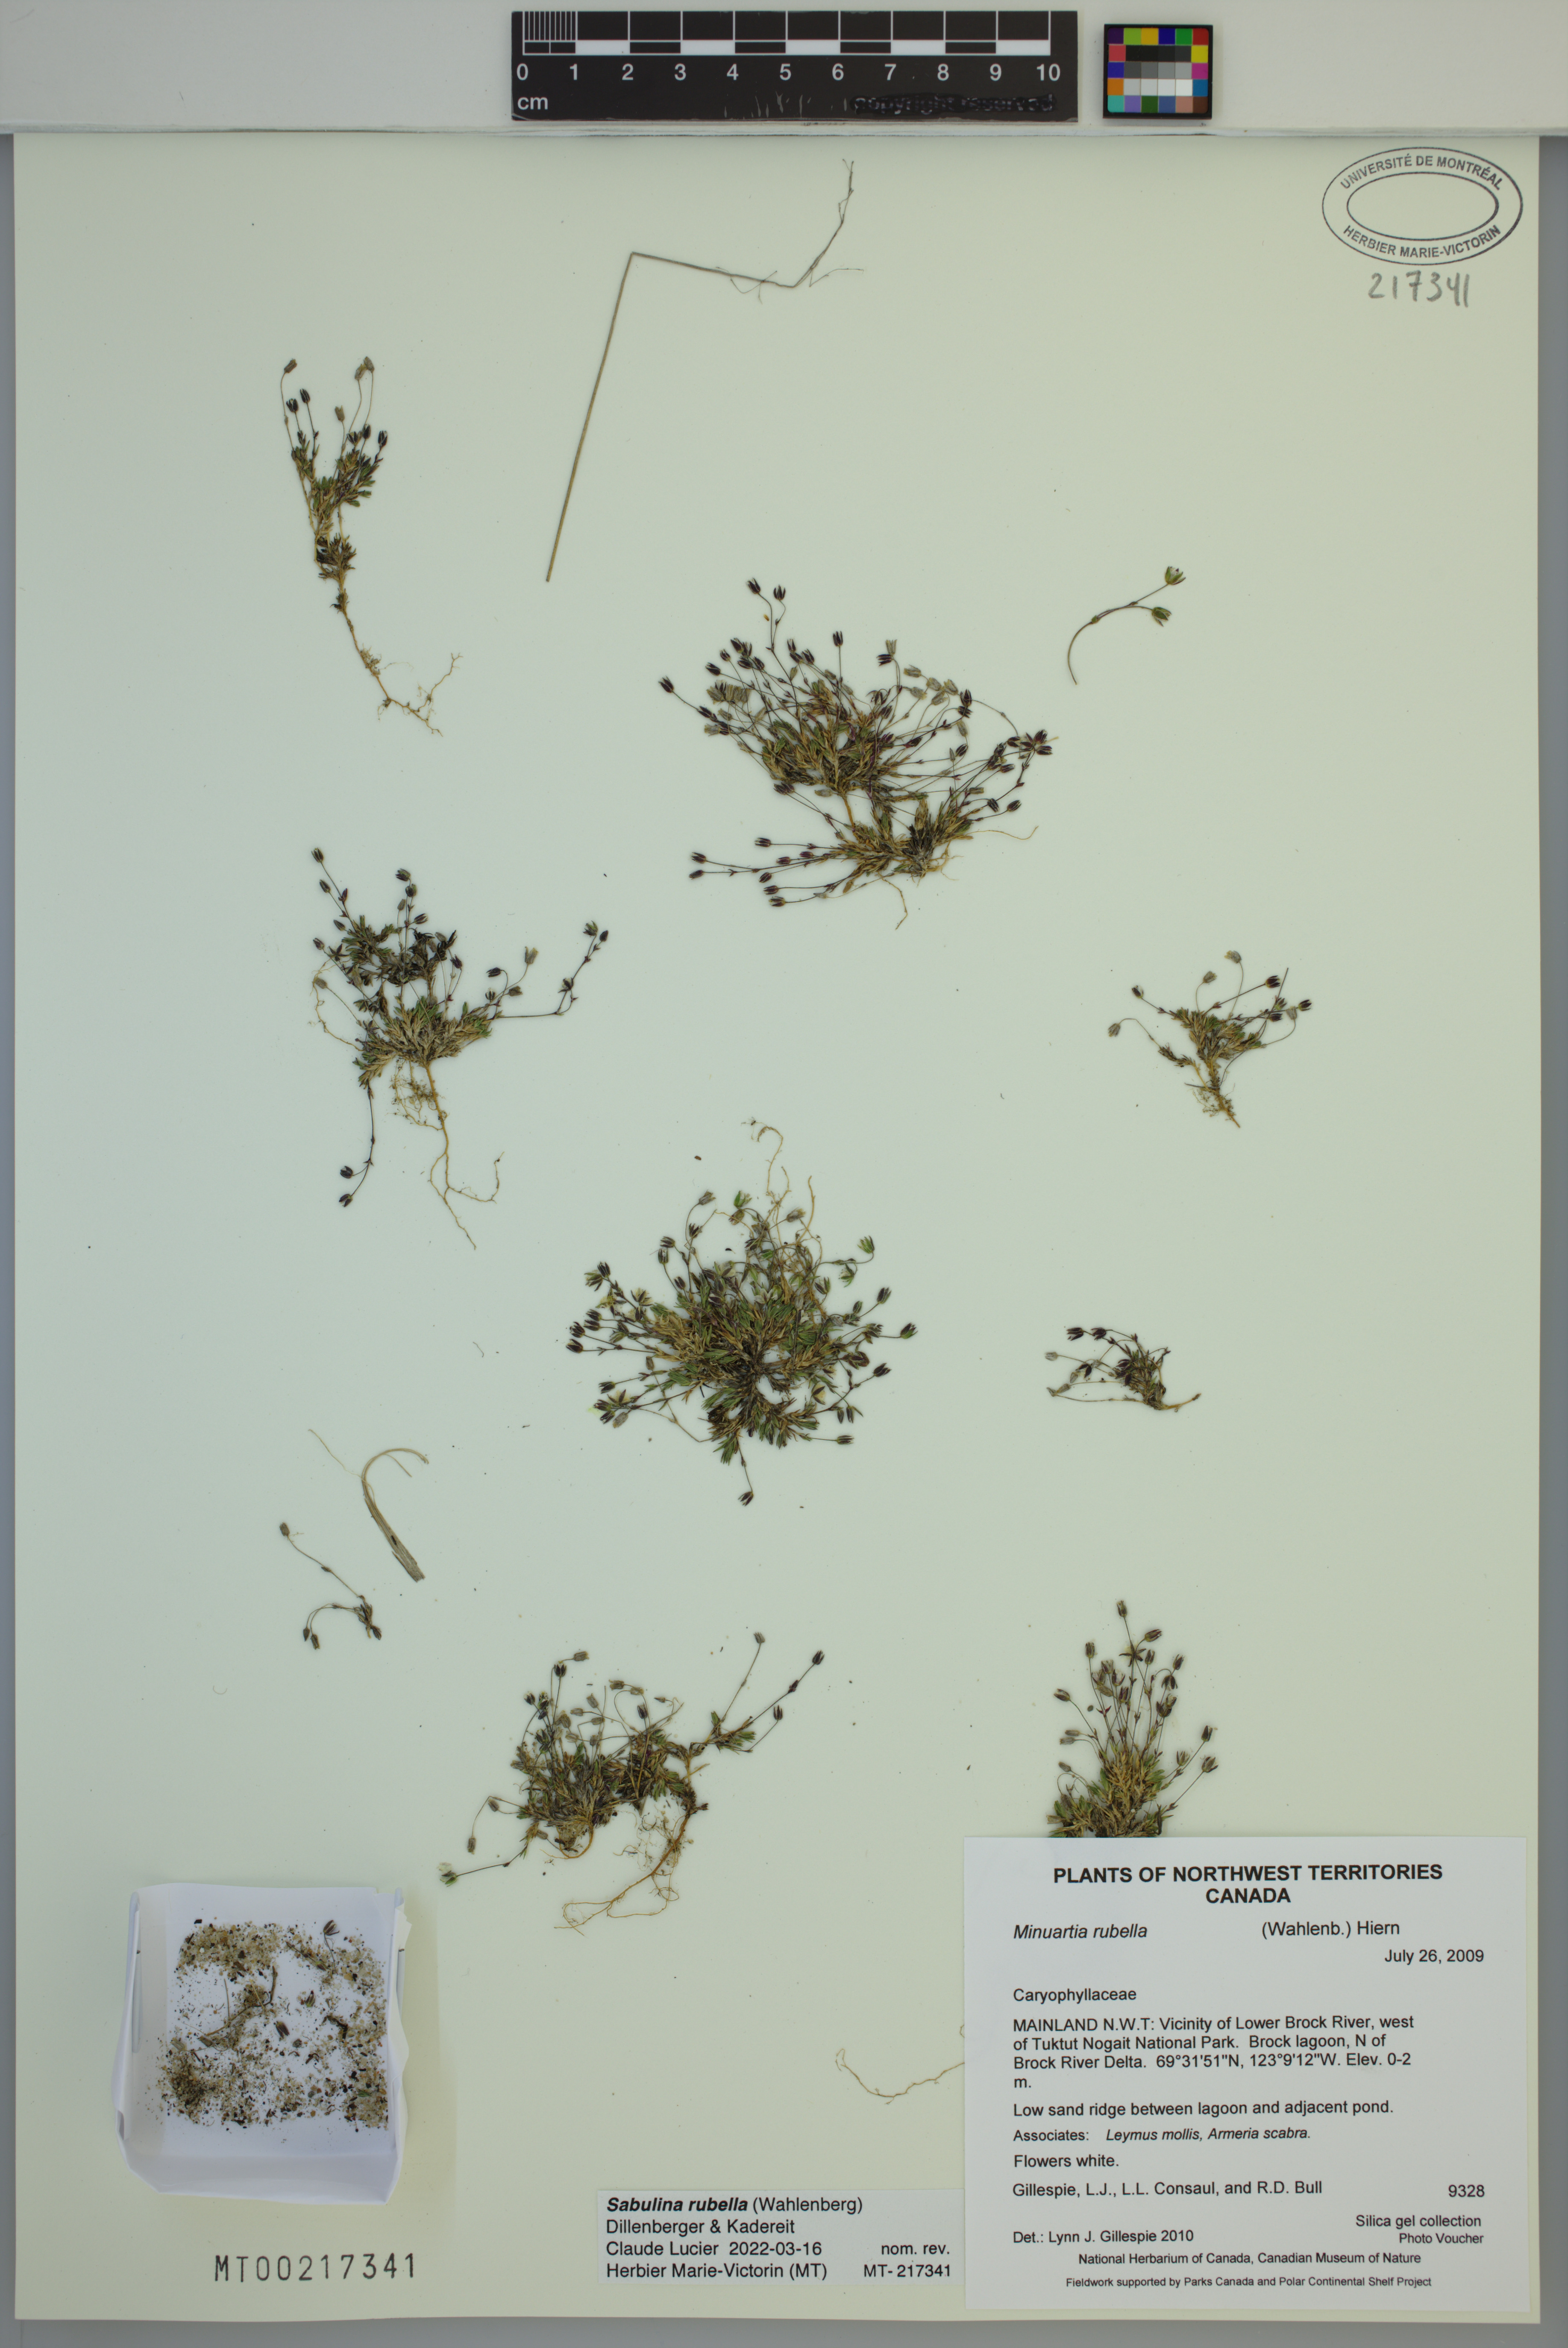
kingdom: Plantae
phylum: Tracheophyta
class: Magnoliopsida
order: Caryophyllales
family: Caryophyllaceae
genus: Sabulina
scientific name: Sabulina rubella
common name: Beautiful sandwort
